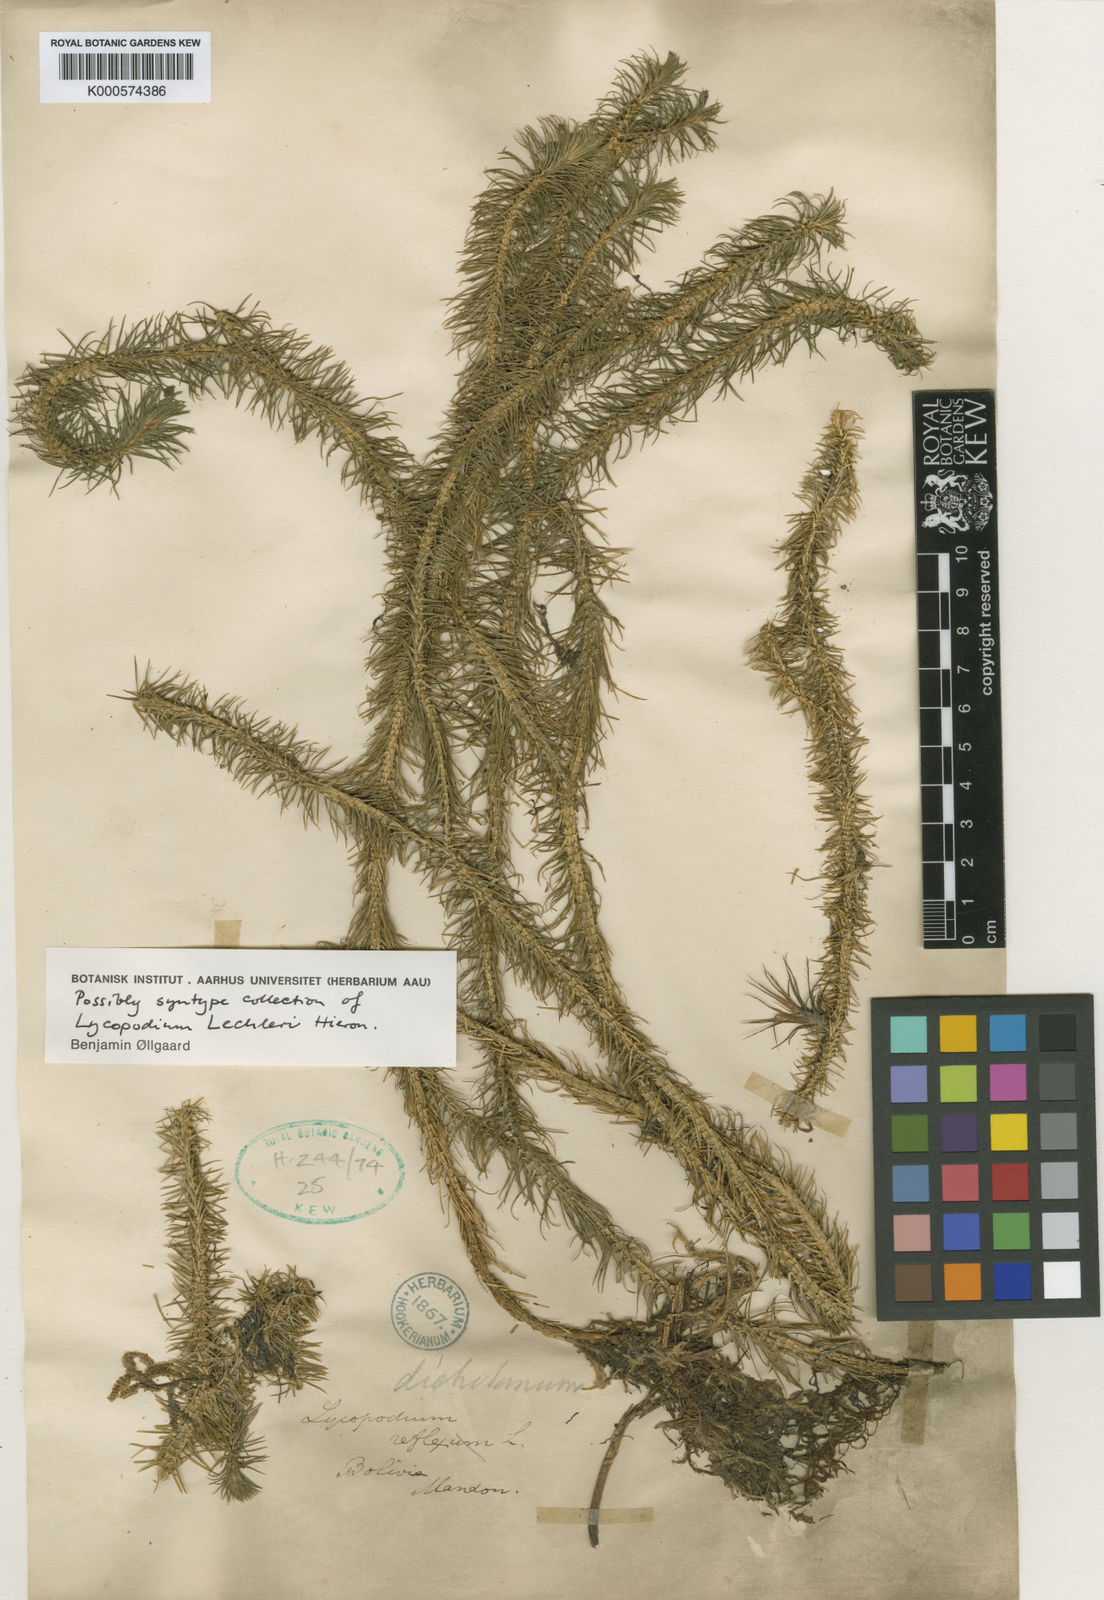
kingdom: Plantae
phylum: Tracheophyta
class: Lycopodiopsida
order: Lycopodiales
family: Lycopodiaceae
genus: Phlegmariurus
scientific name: Phlegmariurus hippurideus
